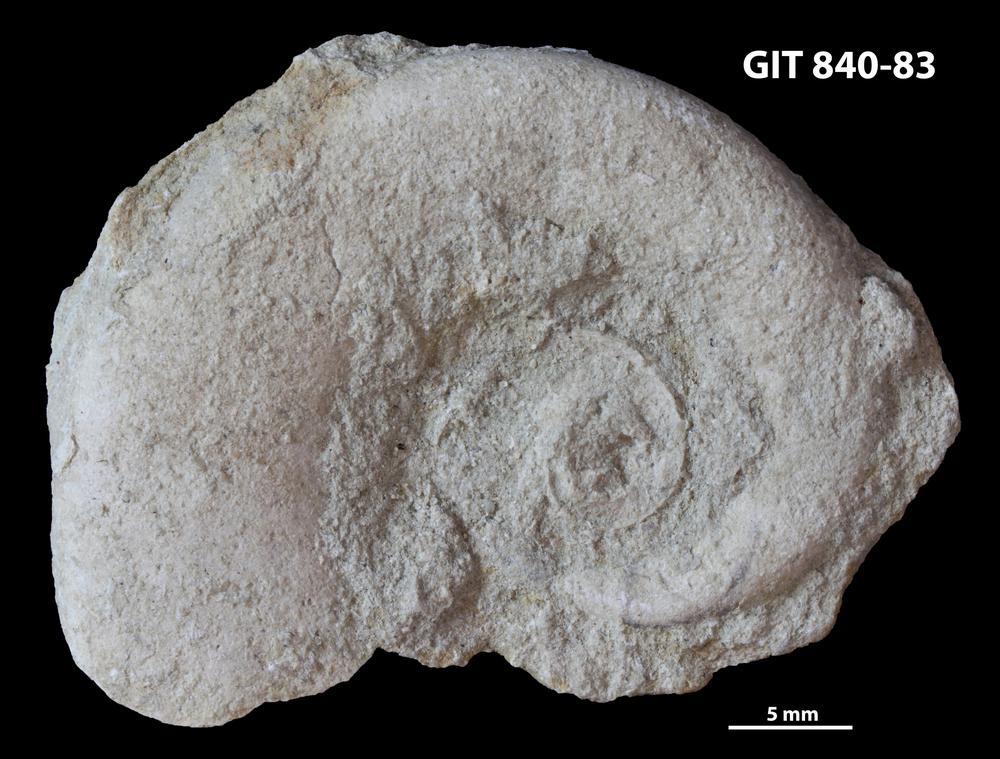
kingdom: Animalia
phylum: Mollusca
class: Gastropoda
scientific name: Gastropoda
